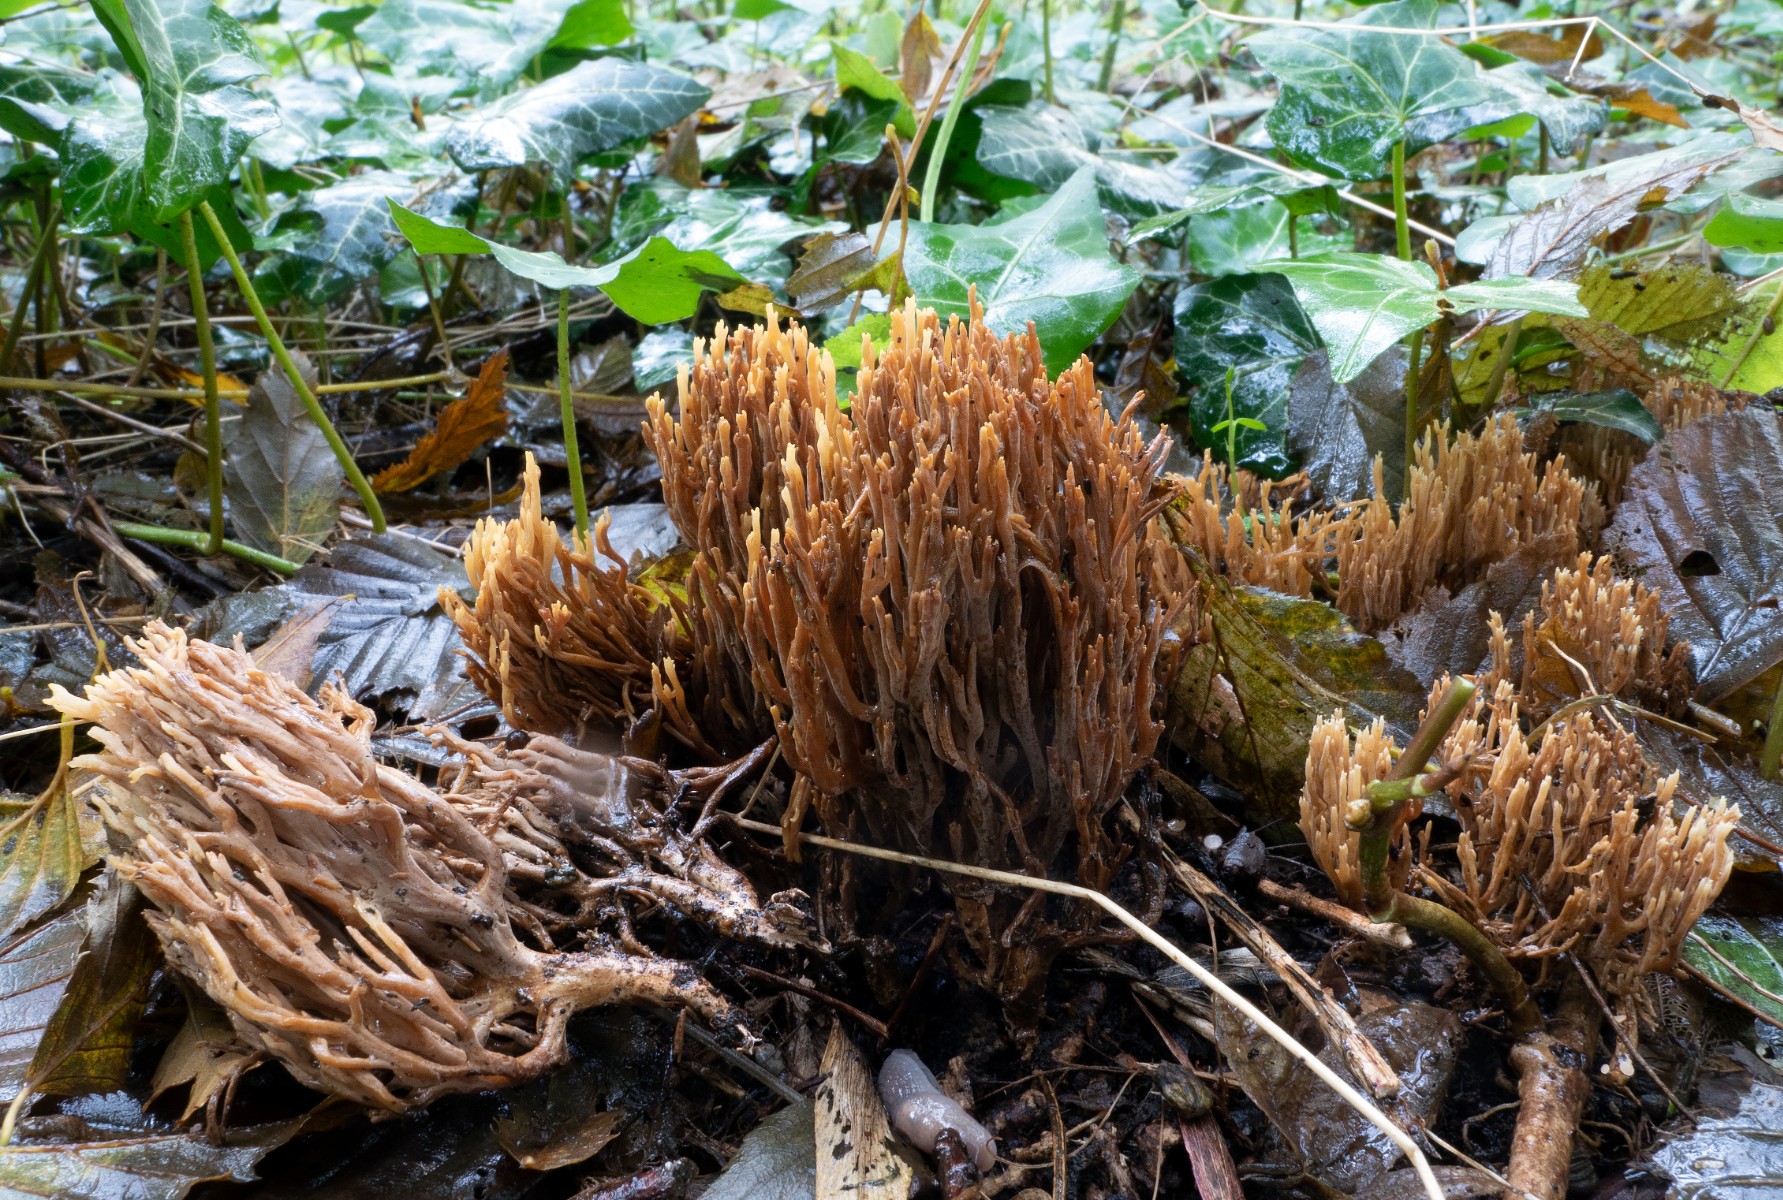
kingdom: Fungi
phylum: Basidiomycota
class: Agaricomycetes
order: Gomphales
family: Gomphaceae
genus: Phaeoclavulina
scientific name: Phaeoclavulina decurrens
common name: krat-koralsvamp
